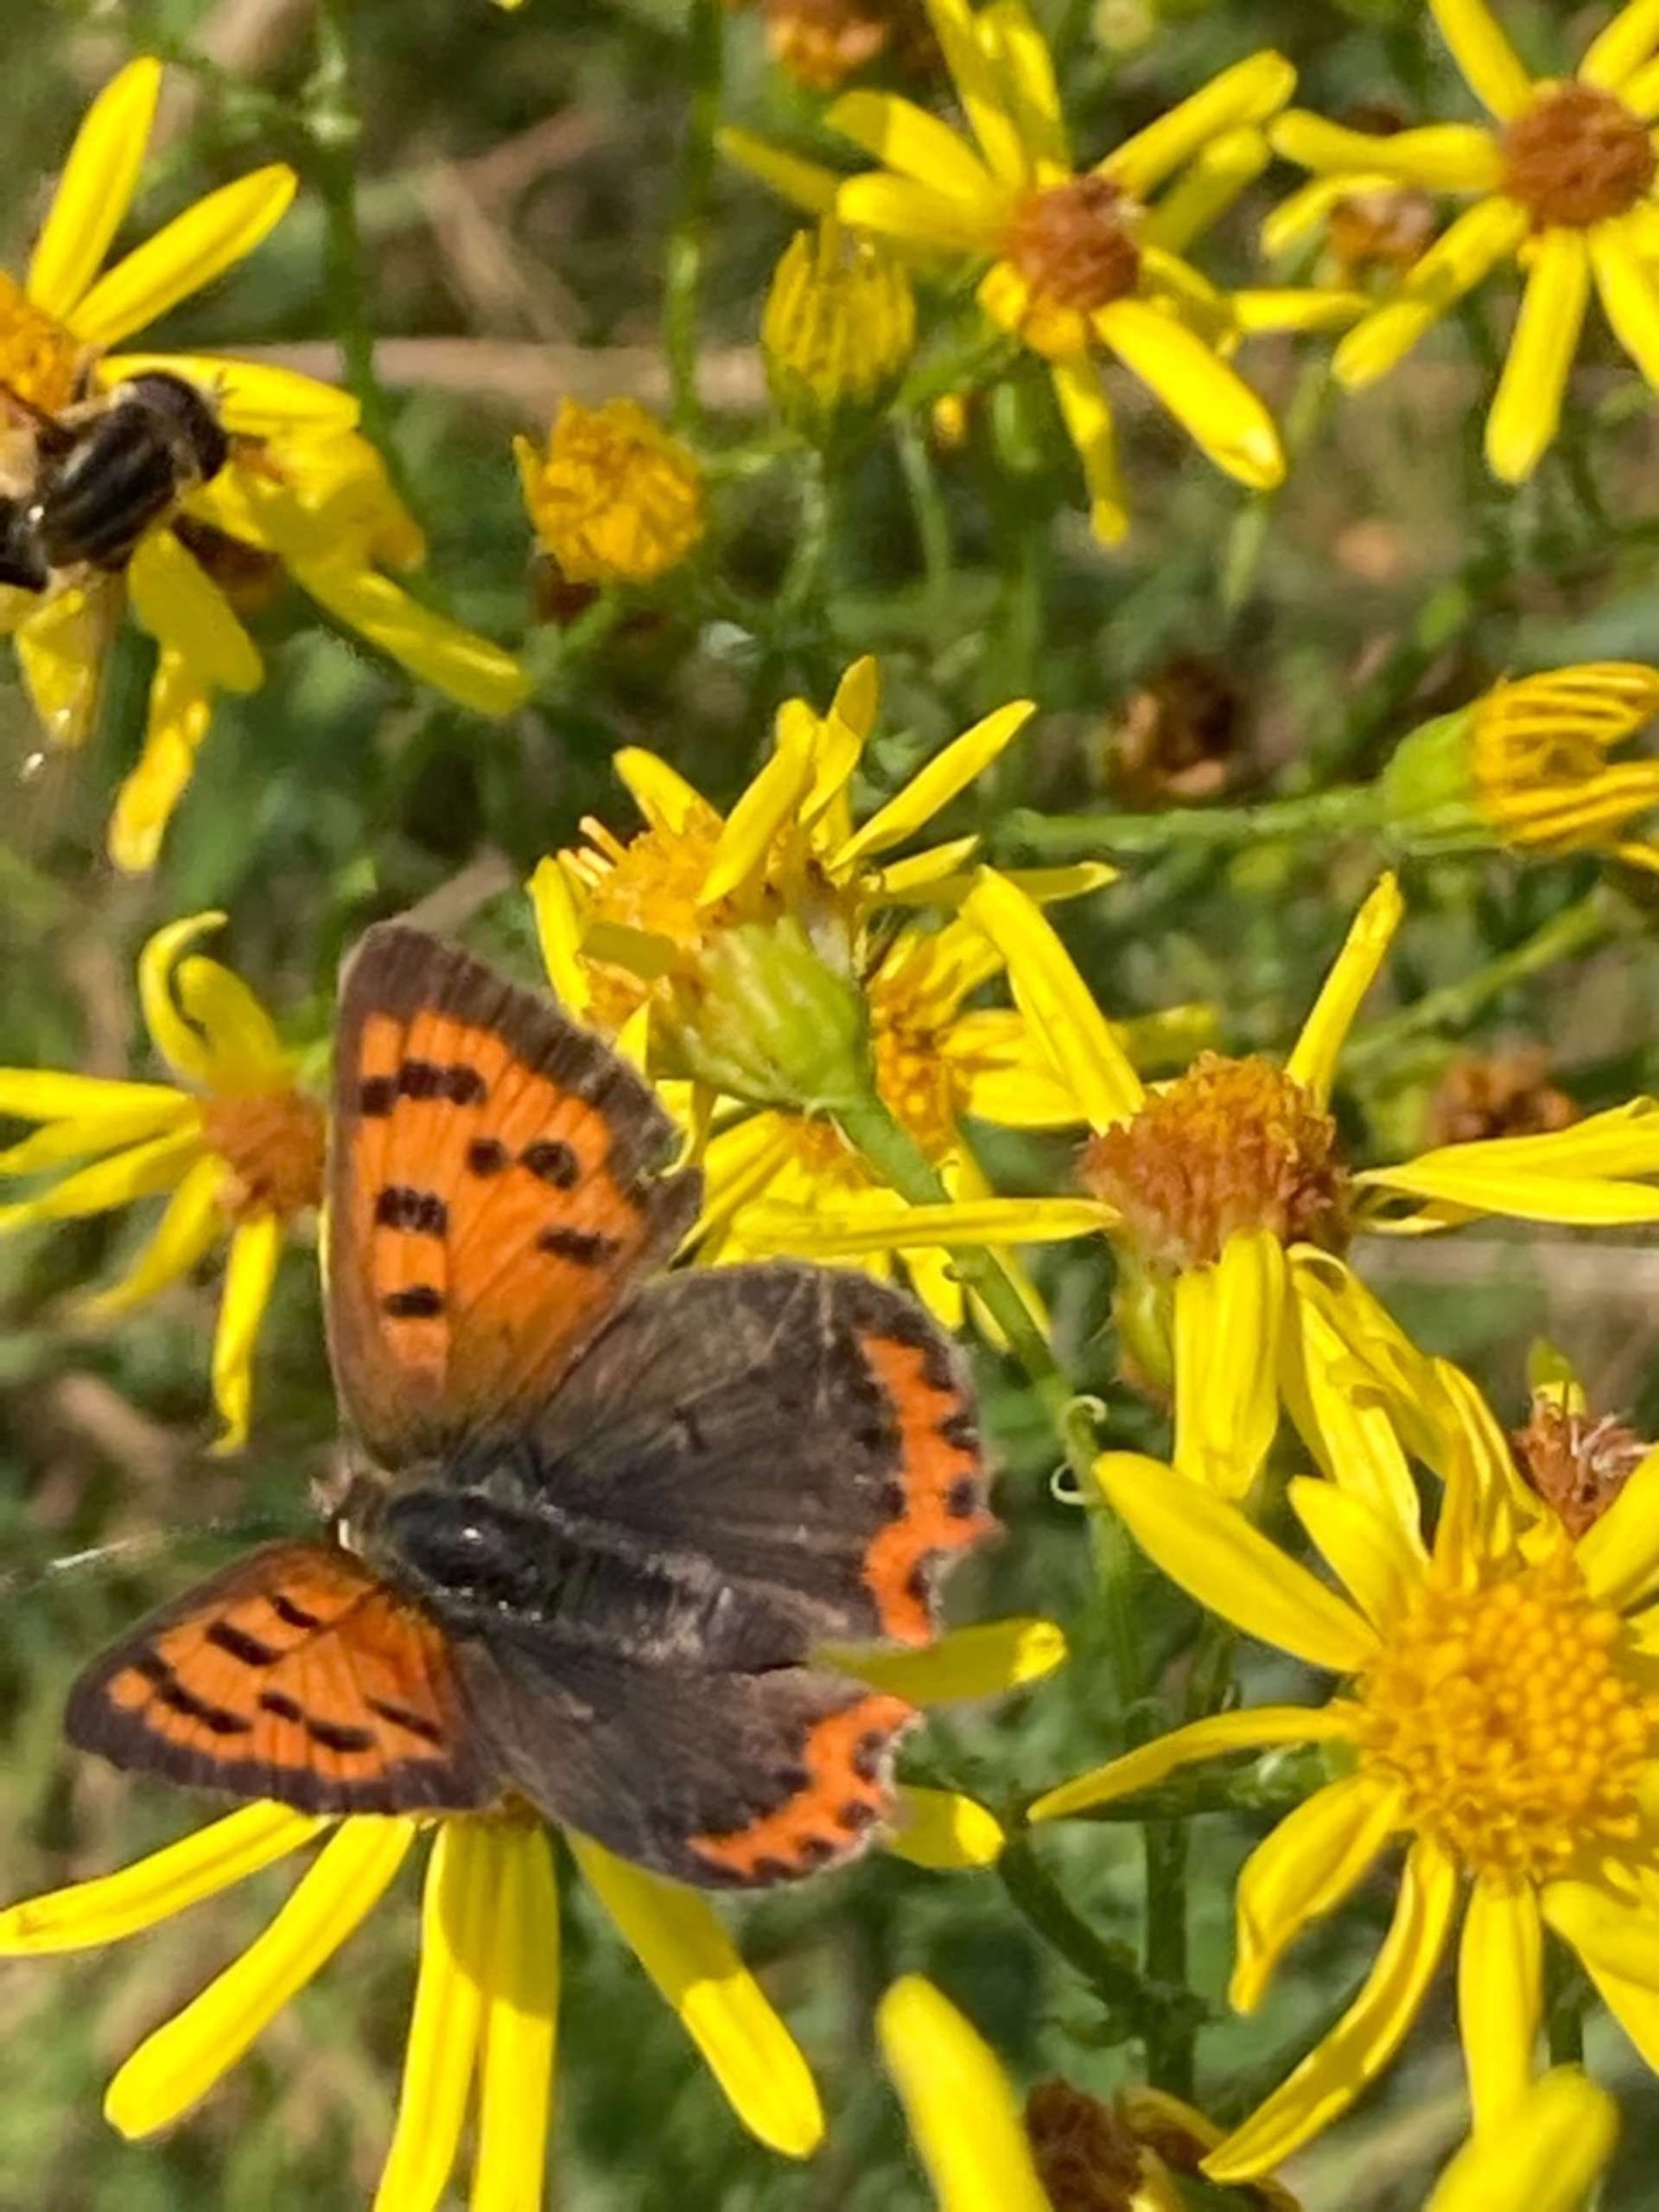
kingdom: Animalia
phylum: Arthropoda
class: Insecta
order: Lepidoptera
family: Lycaenidae
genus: Lycaena
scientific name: Lycaena phlaeas
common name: Lille ildfugl
